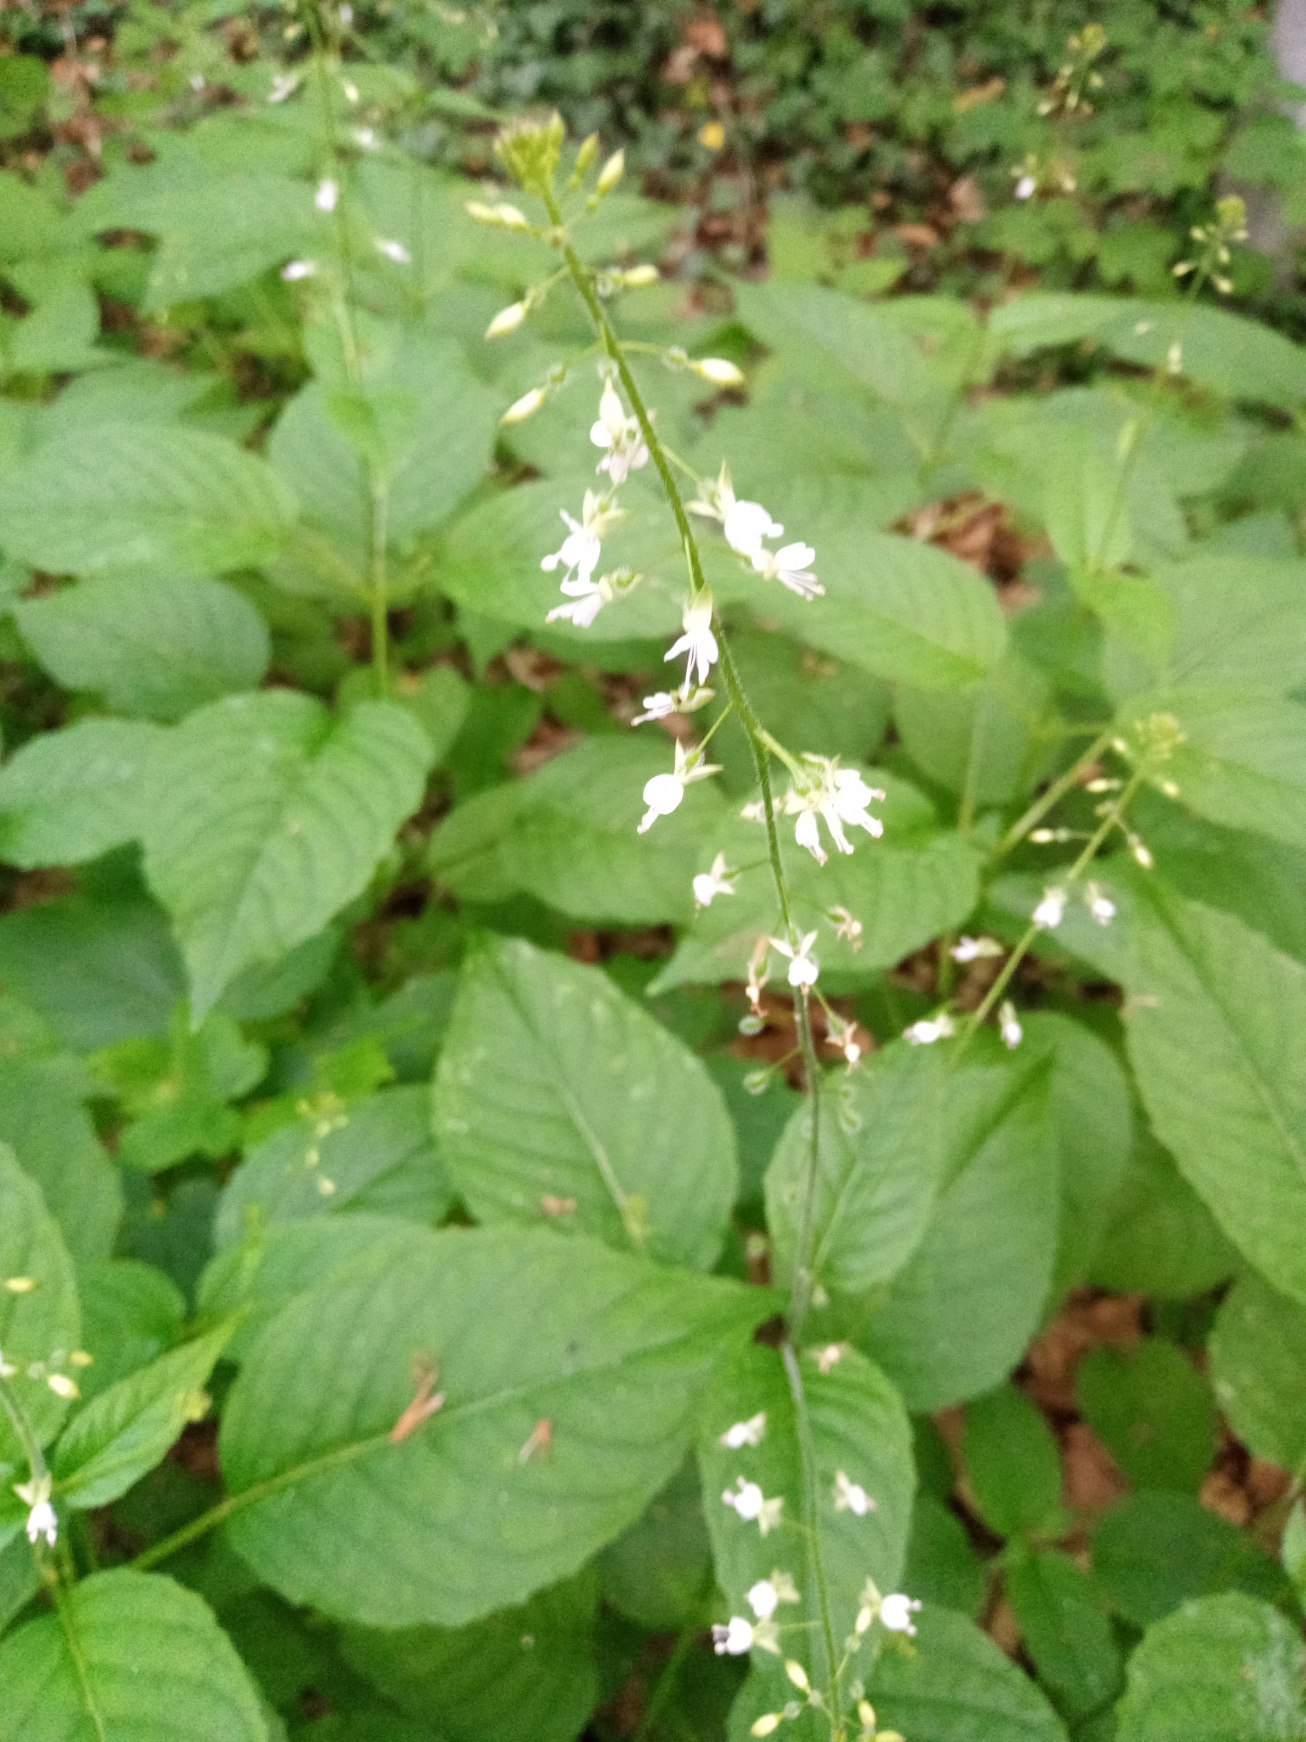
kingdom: Plantae
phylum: Tracheophyta
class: Magnoliopsida
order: Myrtales
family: Onagraceae
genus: Circaea
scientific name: Circaea lutetiana
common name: Dunet steffensurt
